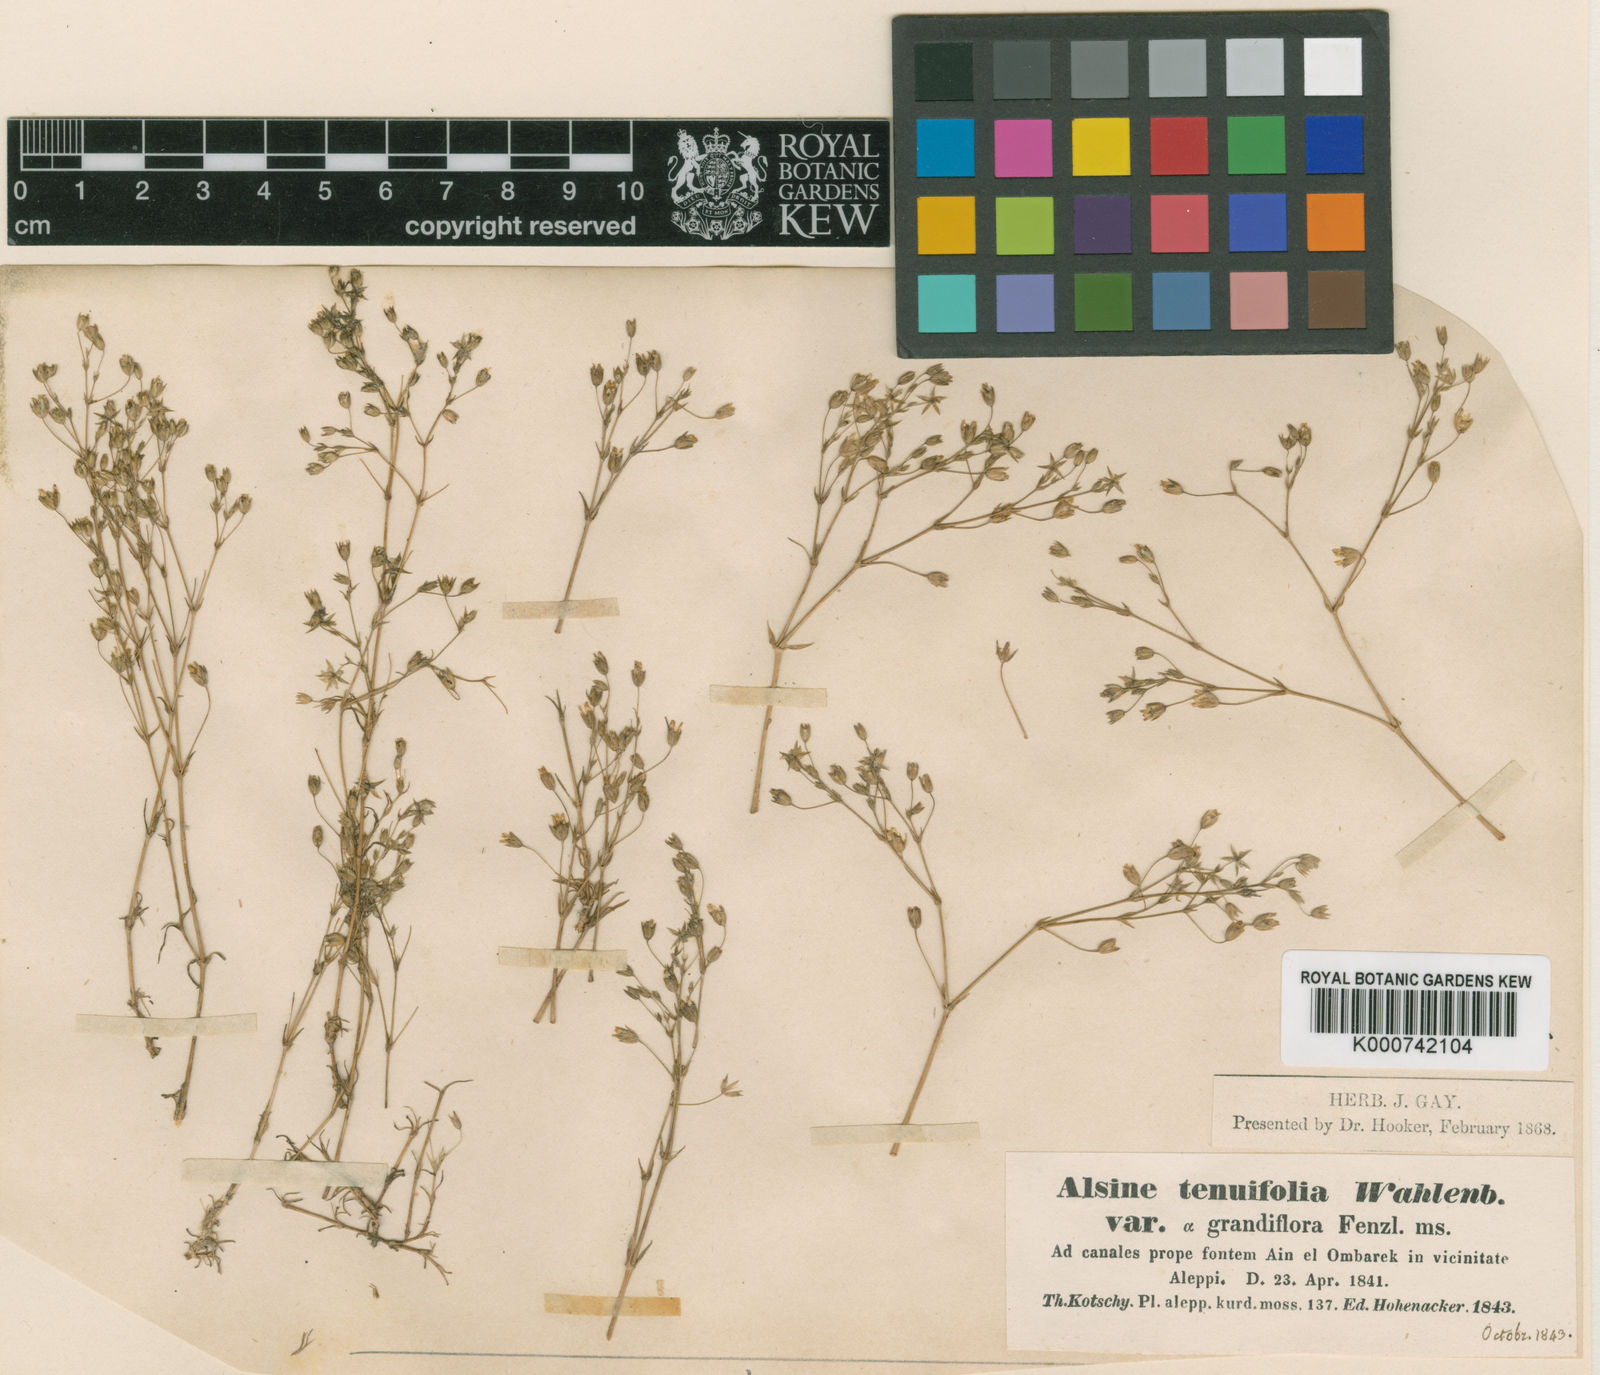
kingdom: Plantae
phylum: Tracheophyta
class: Magnoliopsida
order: Caryophyllales
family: Caryophyllaceae
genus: Sabulina
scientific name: Sabulina mesogitana
